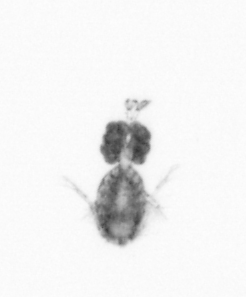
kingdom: Animalia
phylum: Arthropoda
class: Copepoda
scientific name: Copepoda
